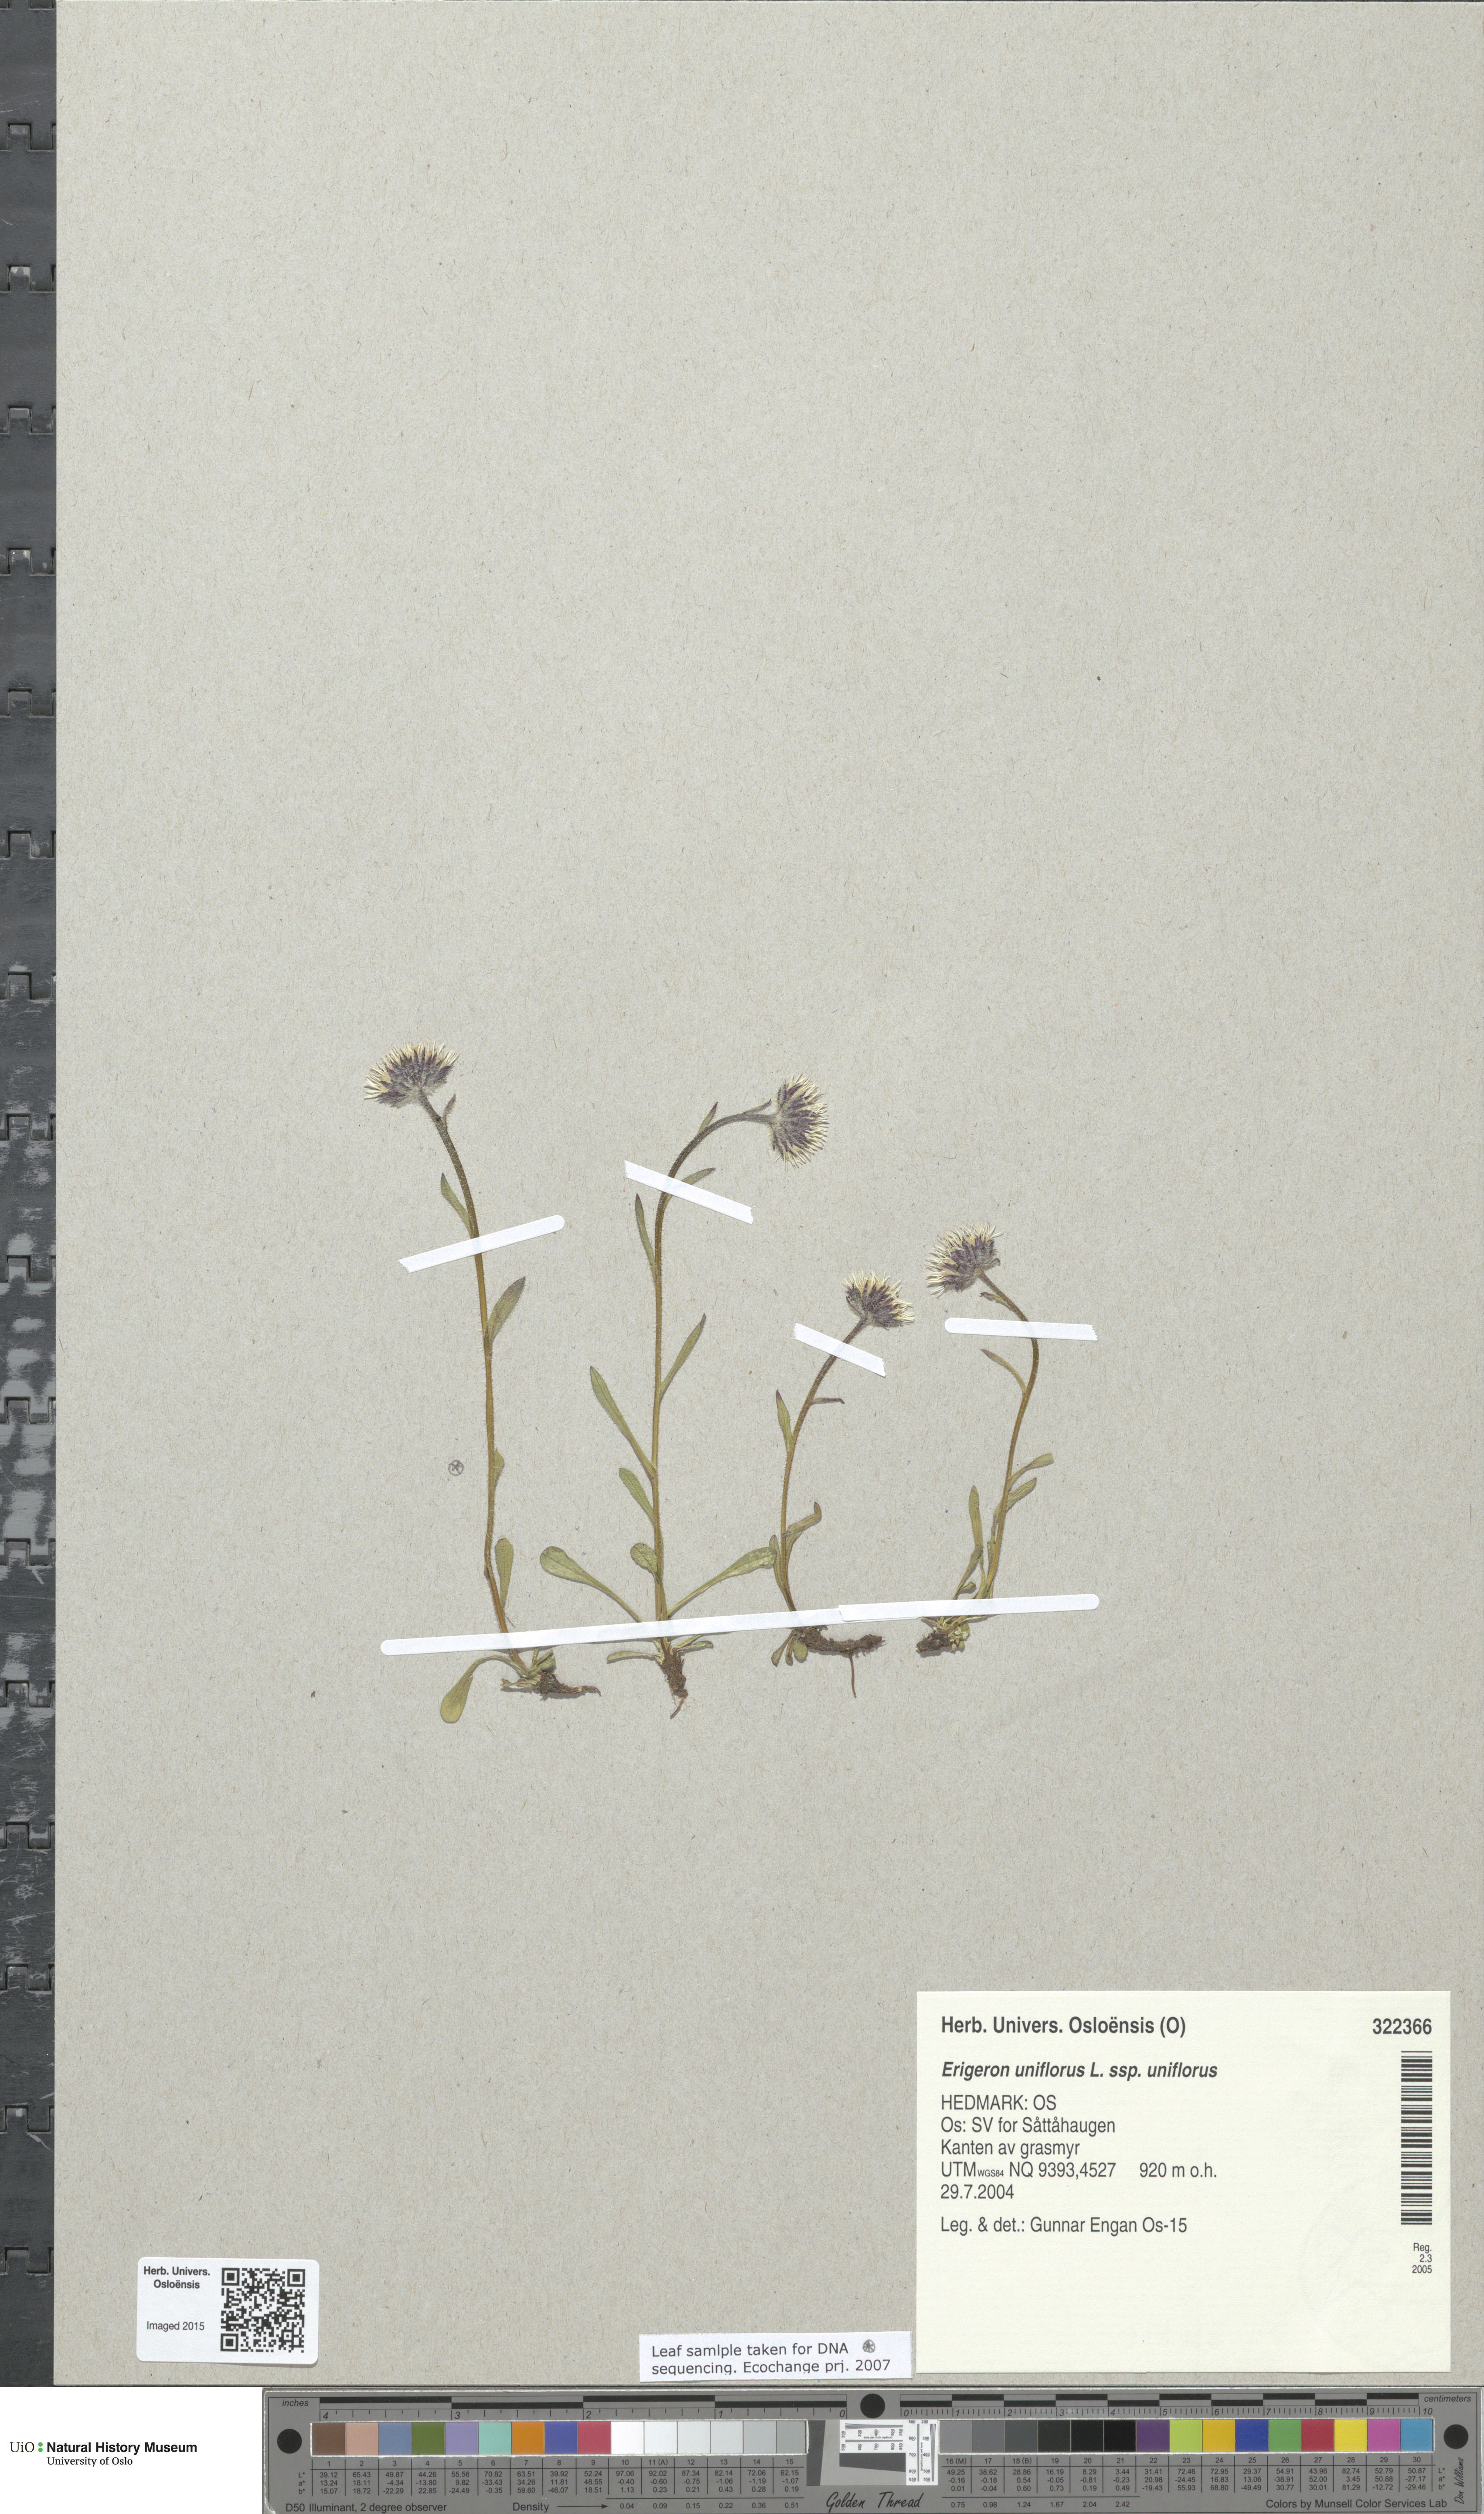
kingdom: Plantae
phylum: Tracheophyta
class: Magnoliopsida
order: Asterales
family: Asteraceae
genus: Erigeron
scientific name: Erigeron uniflorus
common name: Northern daisy
